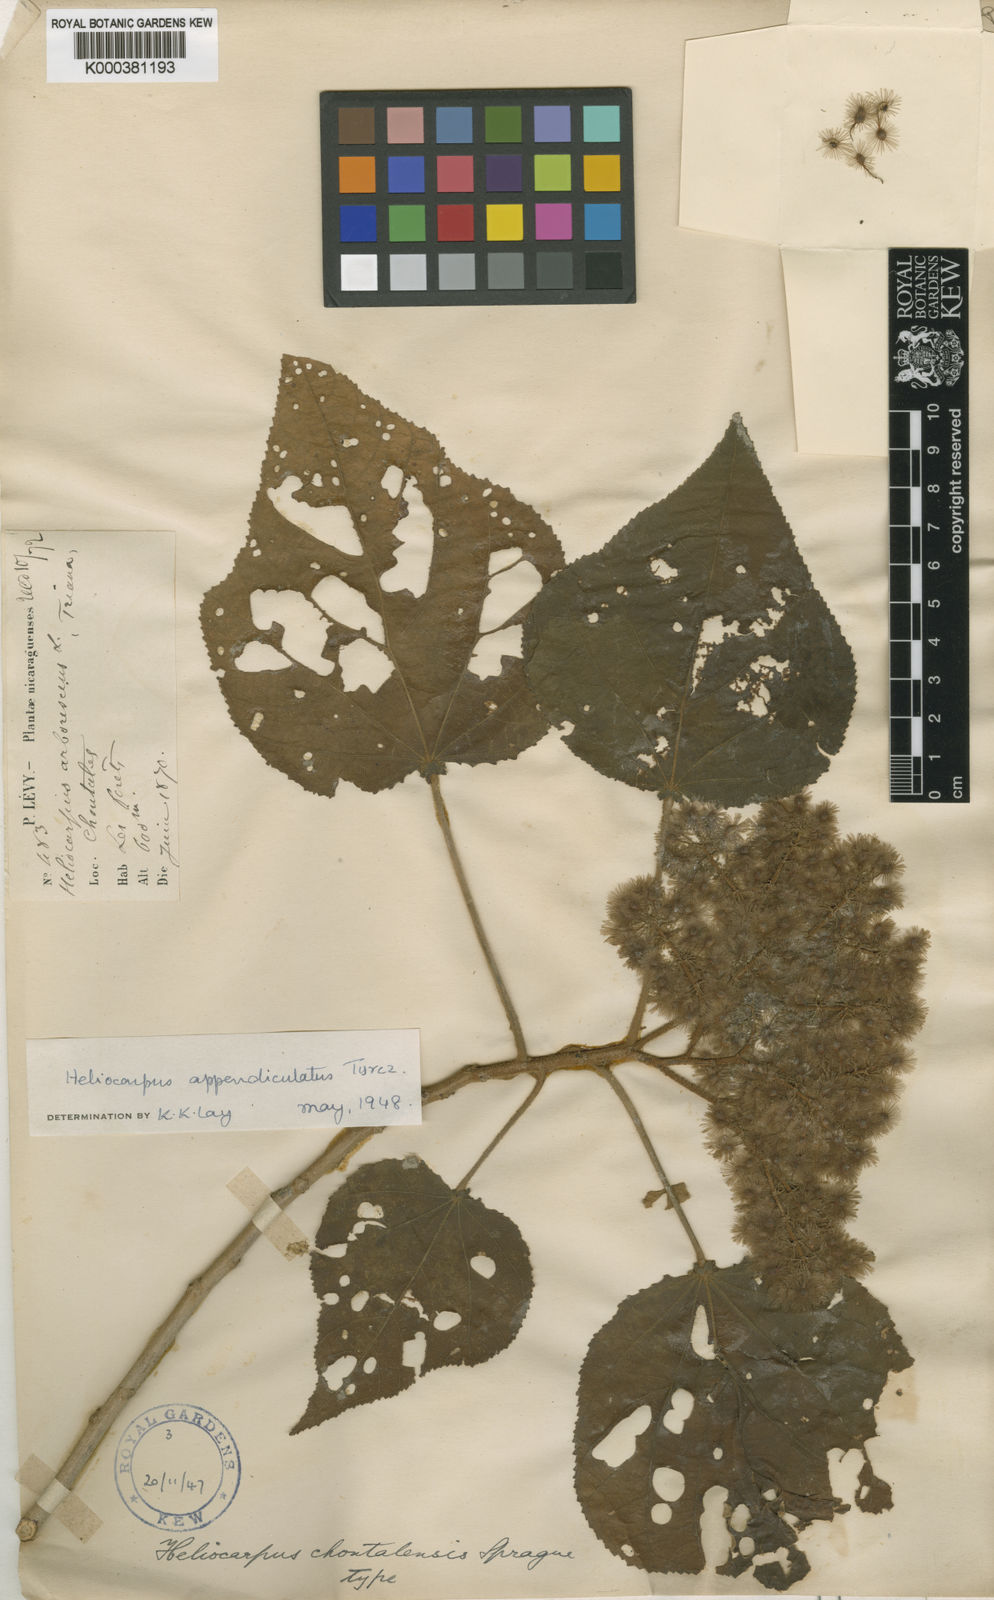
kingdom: Plantae
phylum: Tracheophyta
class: Magnoliopsida
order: Malvales
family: Malvaceae
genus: Heliocarpus
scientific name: Heliocarpus appendiculatus
